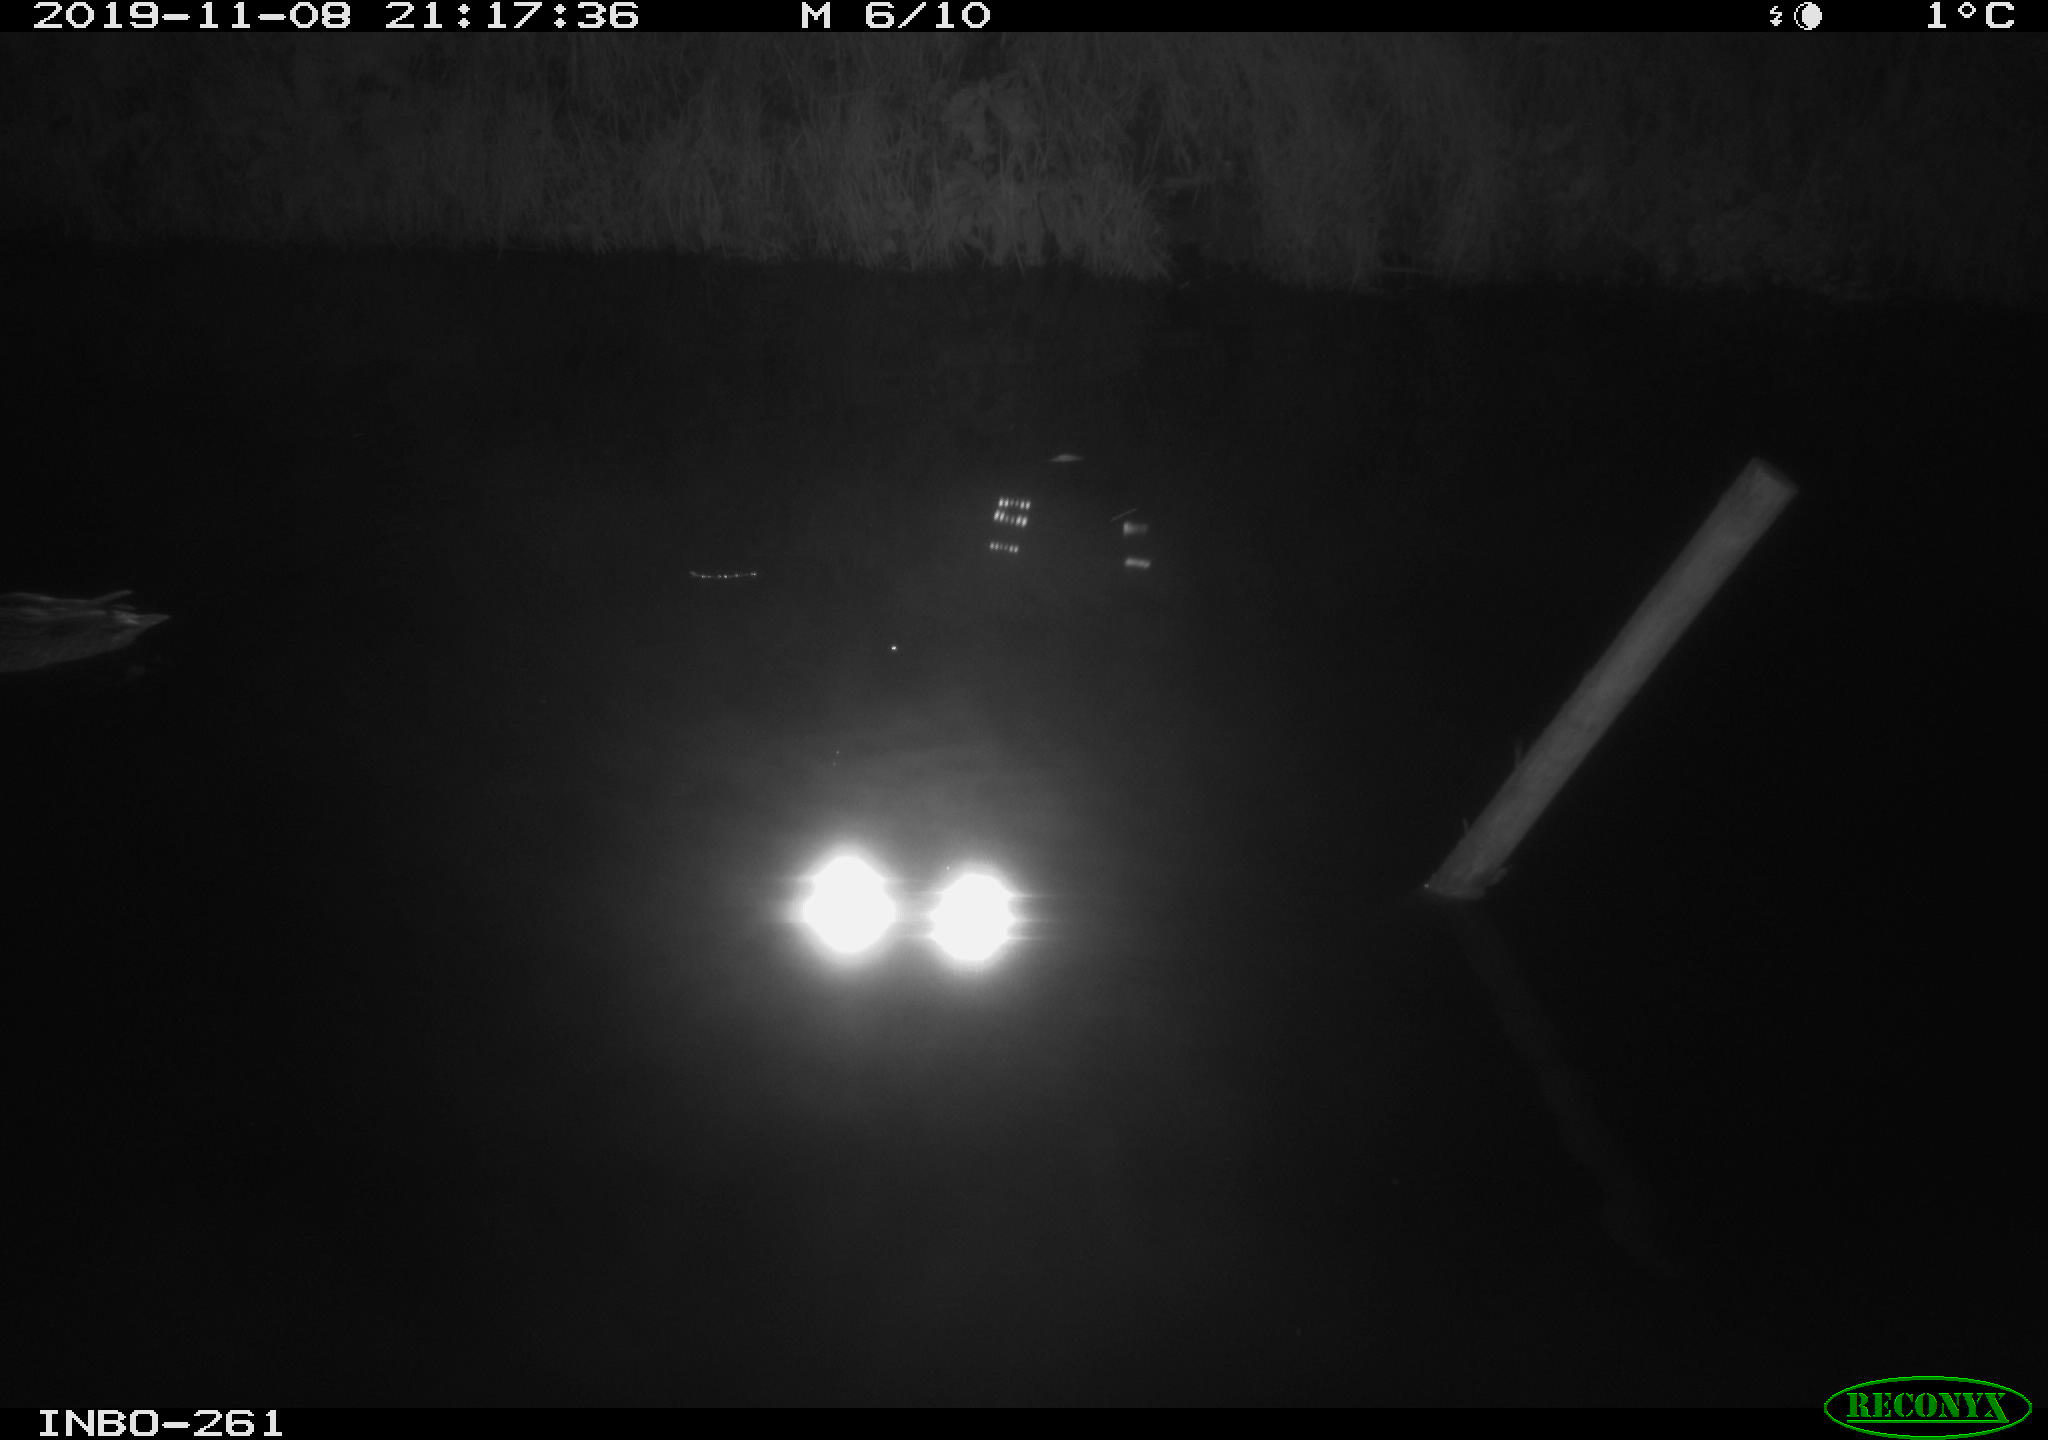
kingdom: Animalia
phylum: Chordata
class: Aves
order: Anseriformes
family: Anatidae
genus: Anas
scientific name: Anas platyrhynchos
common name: Mallard
